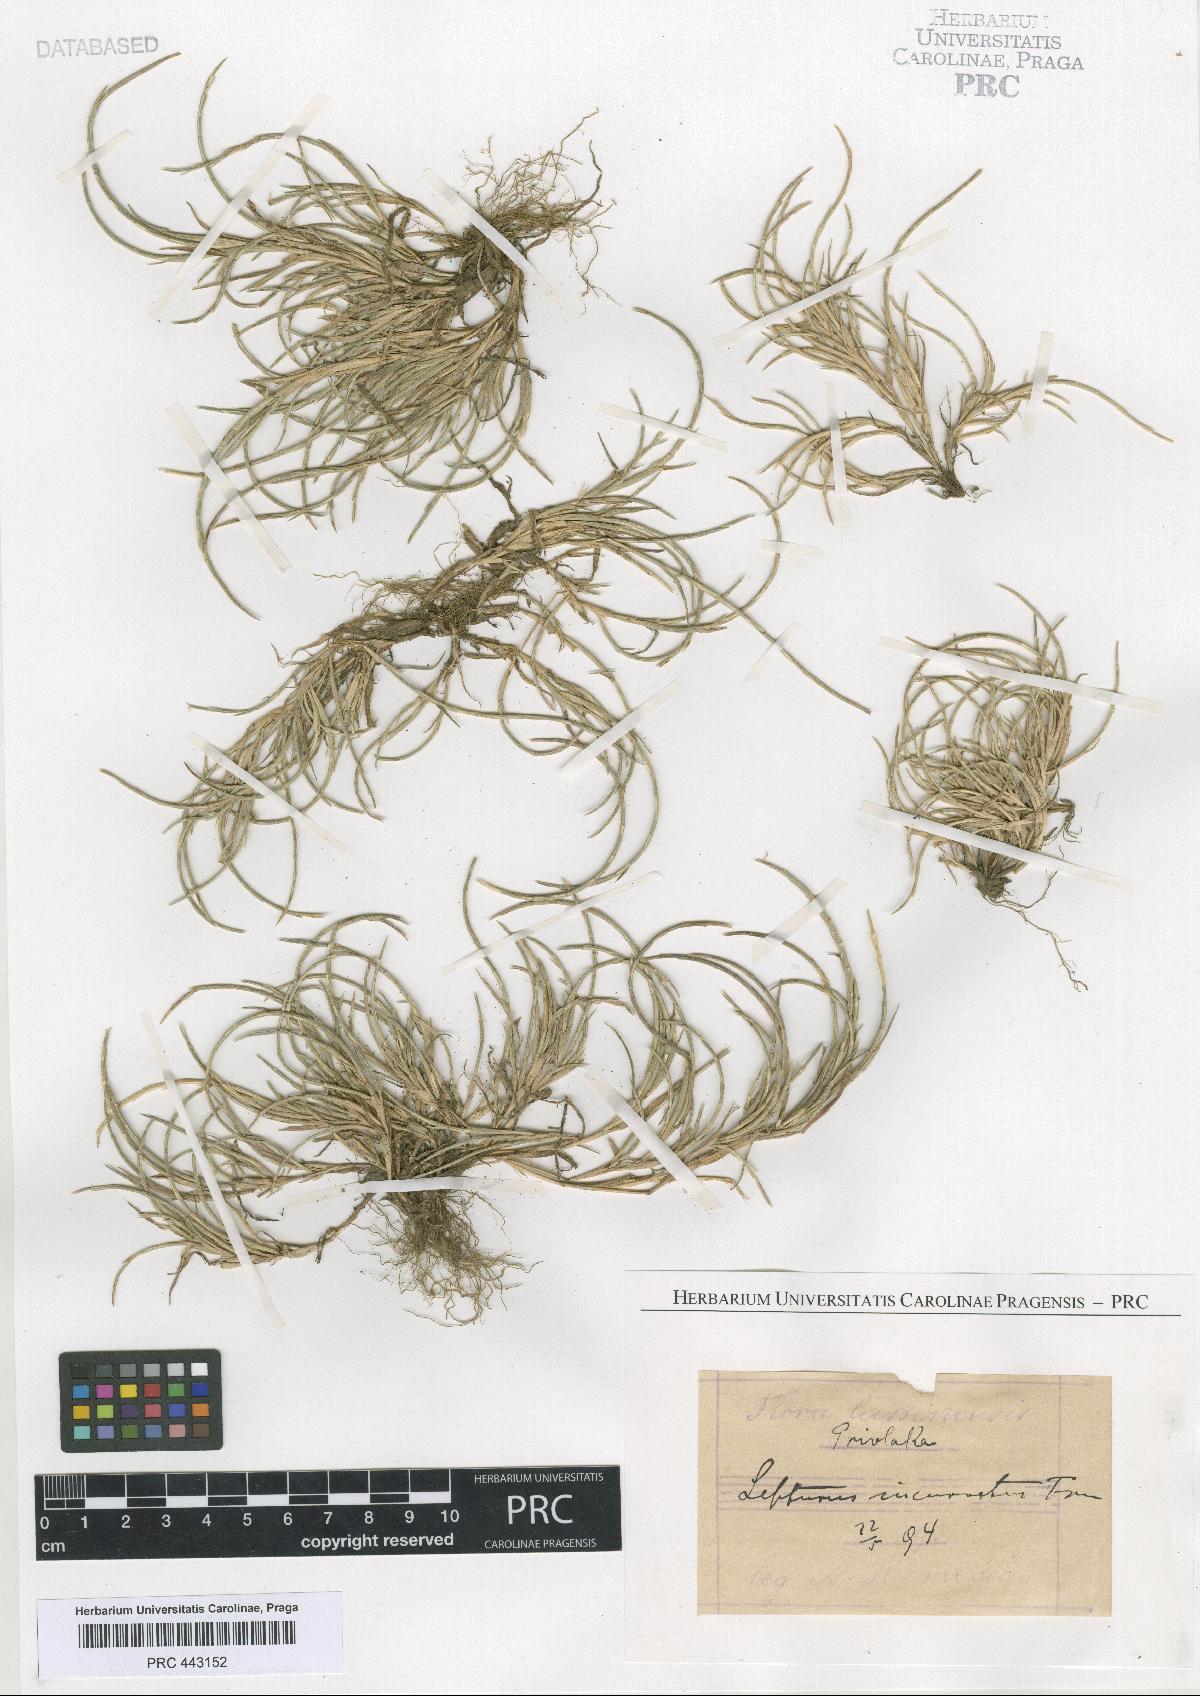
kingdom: Plantae
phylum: Tracheophyta
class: Liliopsida
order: Poales
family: Poaceae
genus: Parapholis
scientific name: Parapholis incurva
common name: Curved sicklegrass
